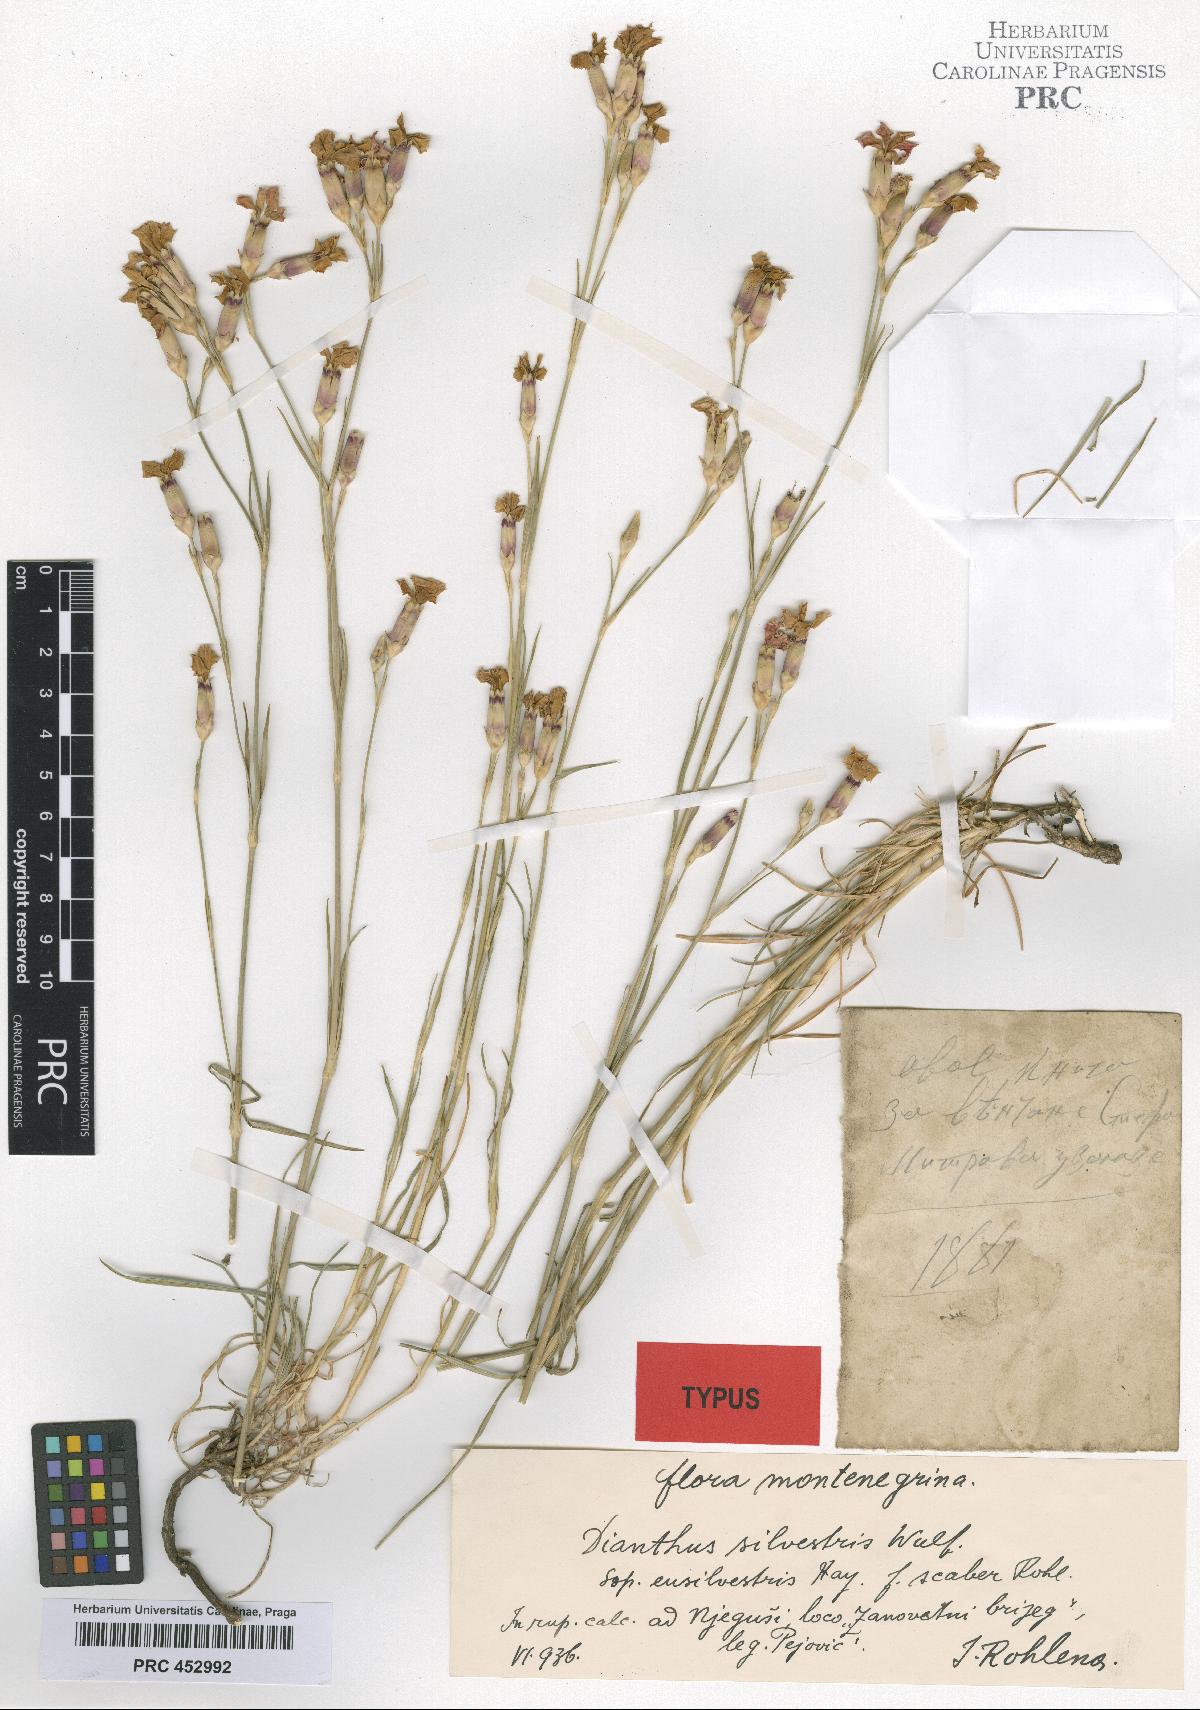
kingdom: Plantae
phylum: Tracheophyta
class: Magnoliopsida
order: Caryophyllales
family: Caryophyllaceae
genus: Dianthus
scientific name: Dianthus sylvestris
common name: Wood pink
